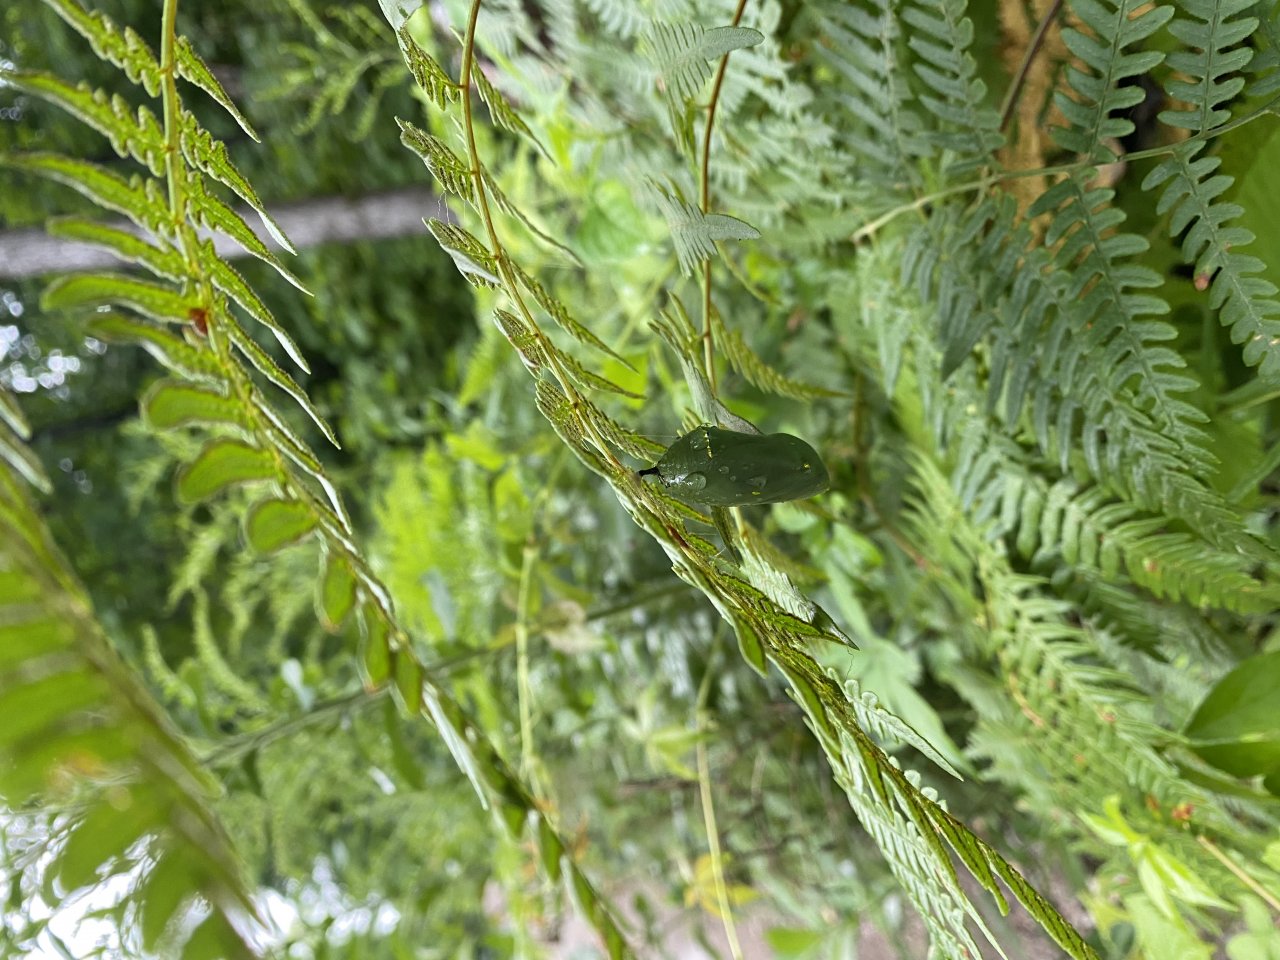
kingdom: Animalia
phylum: Arthropoda
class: Insecta
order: Lepidoptera
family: Nymphalidae
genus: Danaus
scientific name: Danaus plexippus
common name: Monarch
